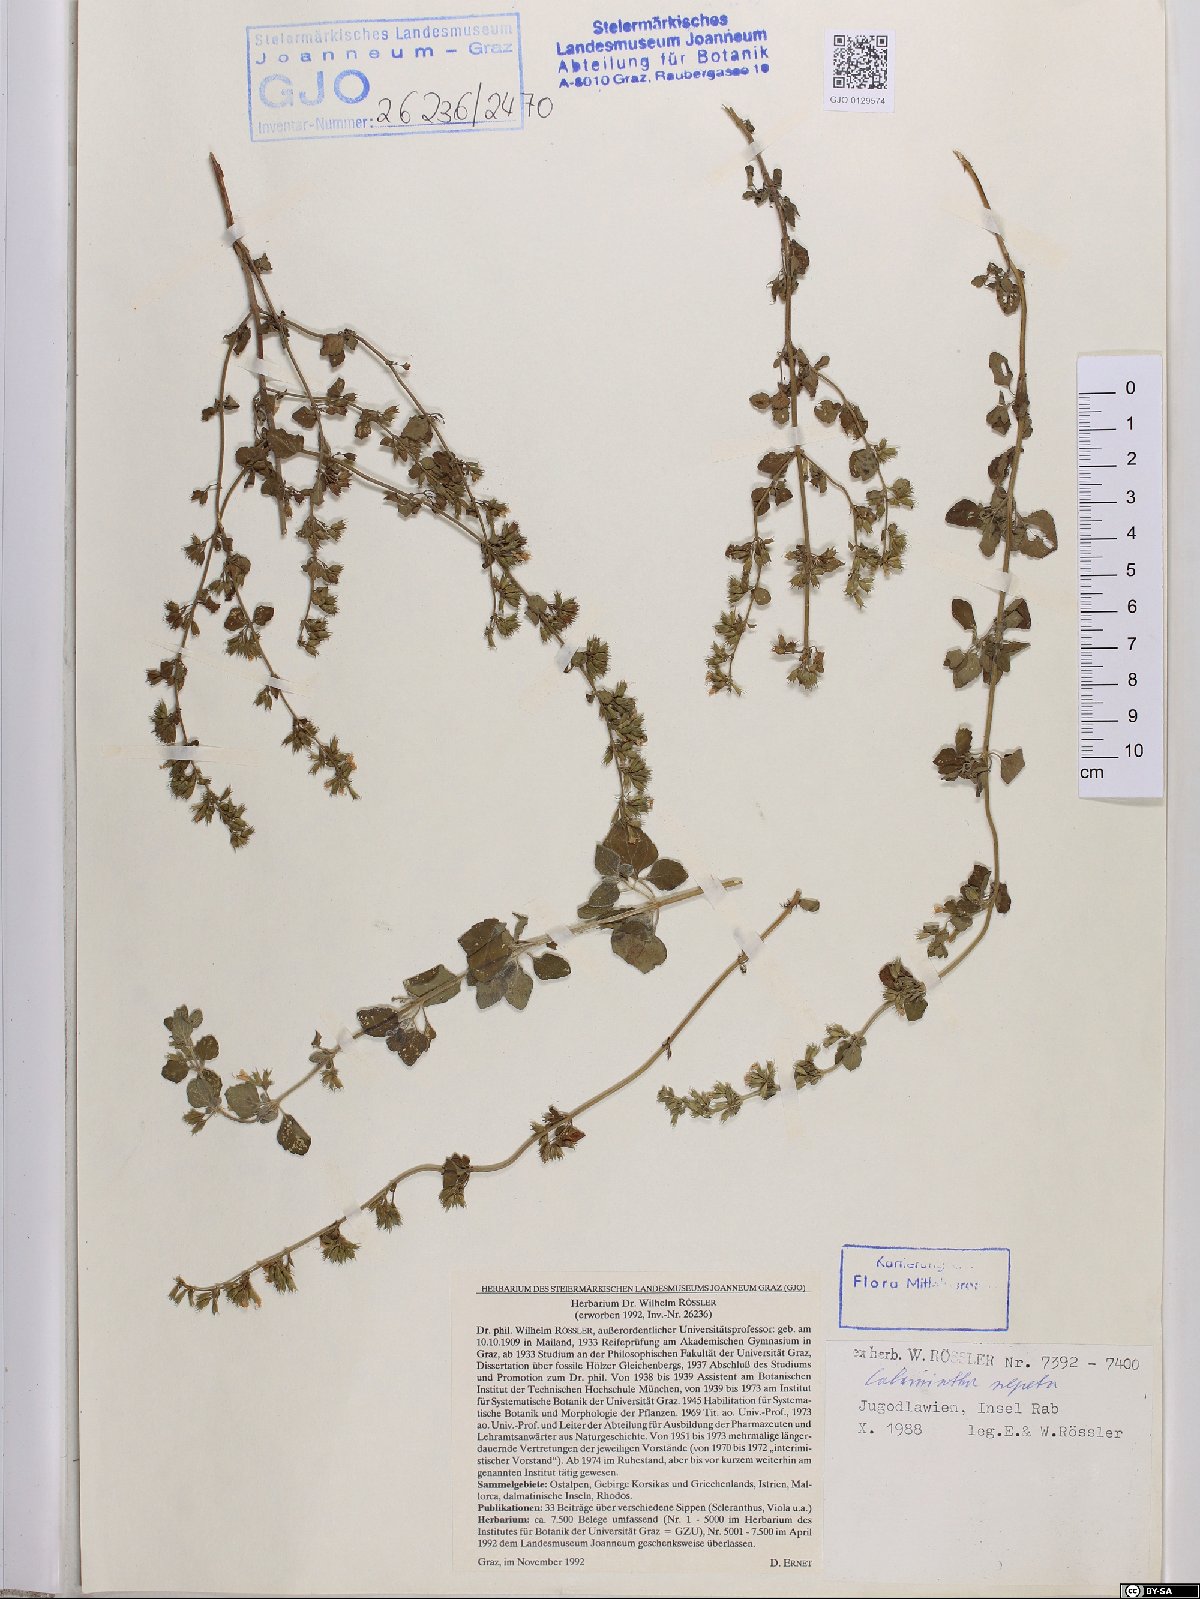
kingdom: Plantae
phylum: Tracheophyta
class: Magnoliopsida
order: Lamiales
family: Lamiaceae
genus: Clinopodium
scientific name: Clinopodium nepeta
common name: Lesser calamint
